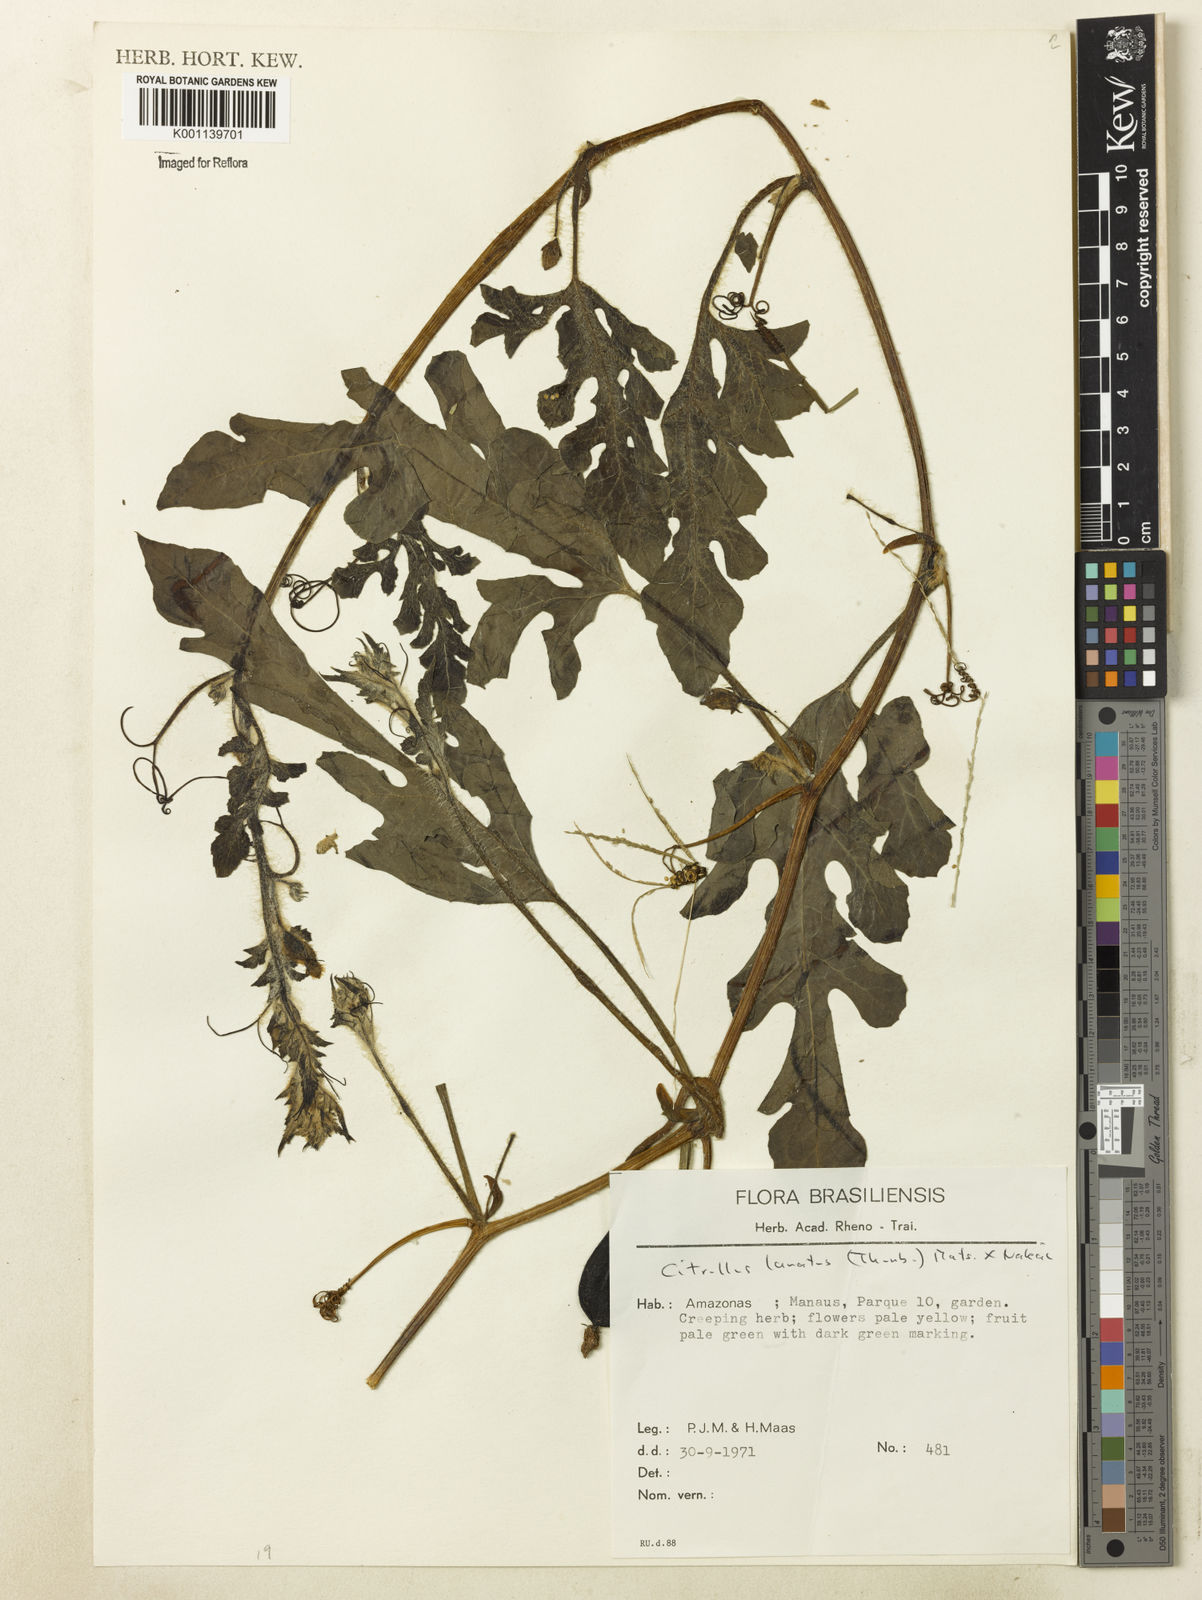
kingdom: Plantae
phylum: Tracheophyta
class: Magnoliopsida
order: Cucurbitales
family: Cucurbitaceae
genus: Citrullus
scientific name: Citrullus lanatus
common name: Watermelon
